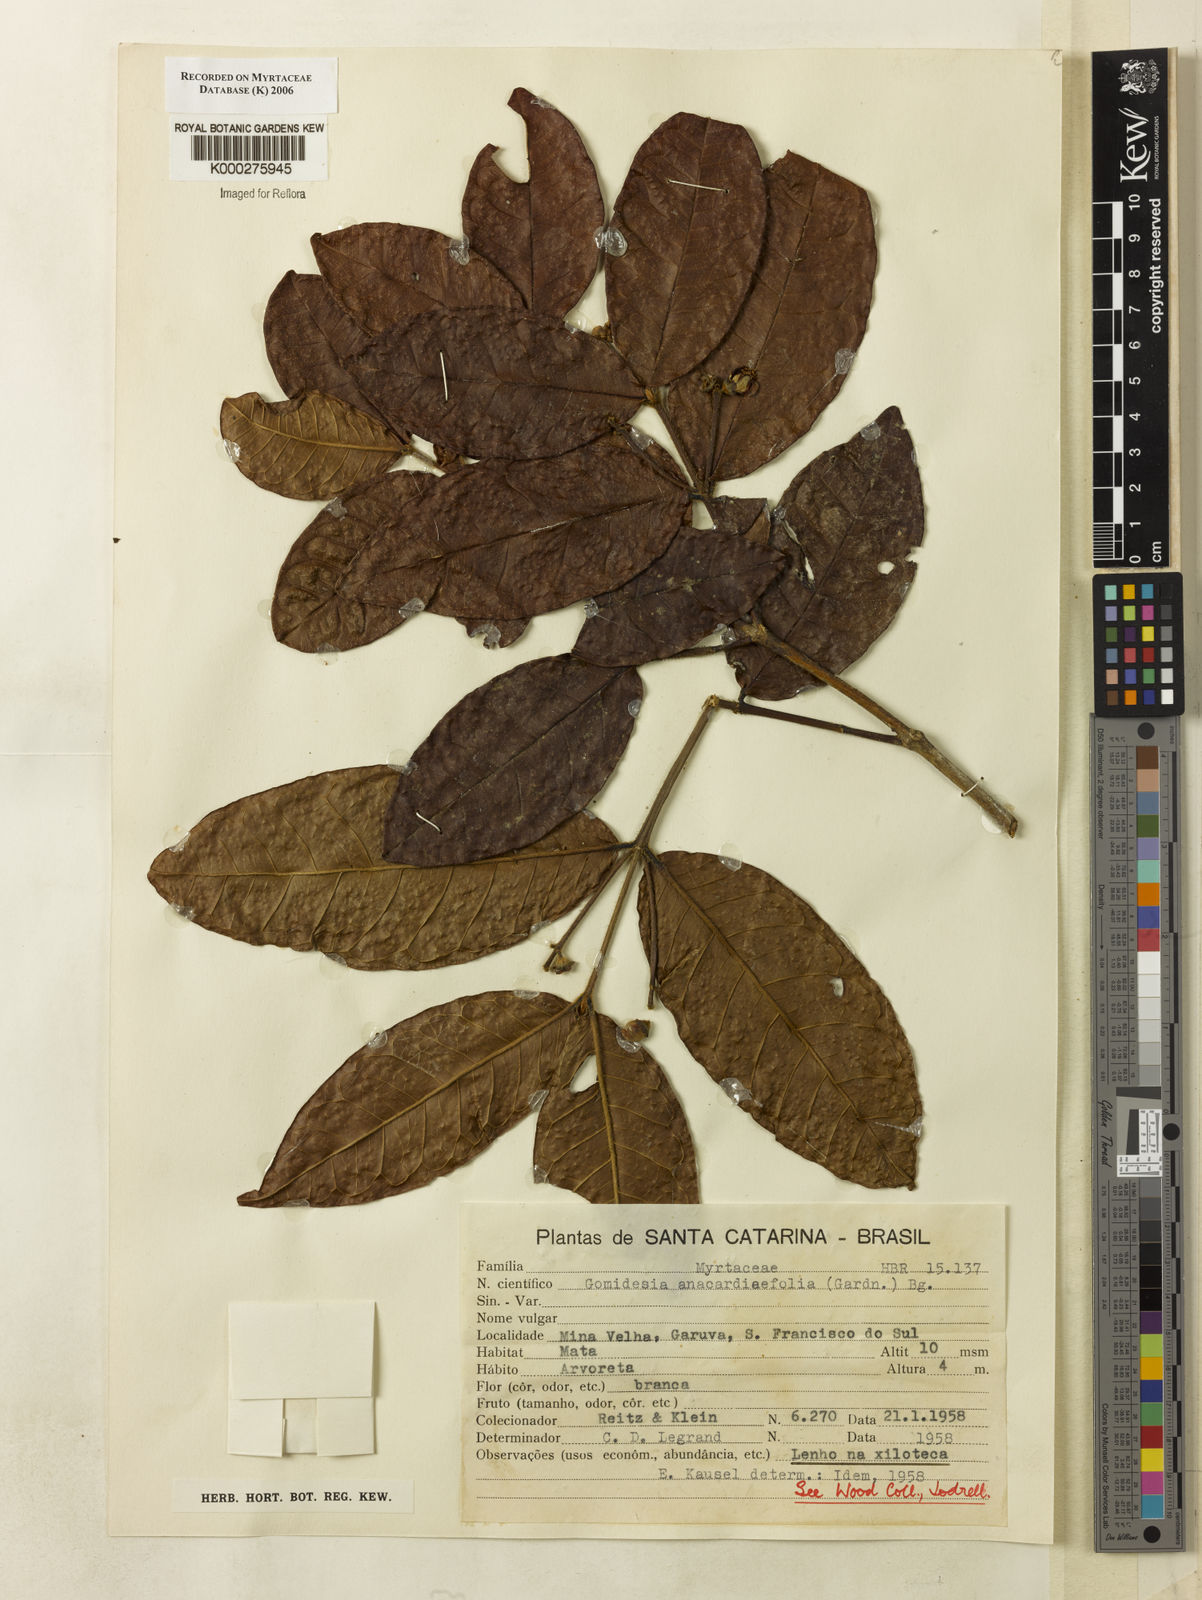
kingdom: Plantae
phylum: Tracheophyta
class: Magnoliopsida
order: Myrtales
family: Myrtaceae
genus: Myrcia
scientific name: Myrcia anacardiifolia
